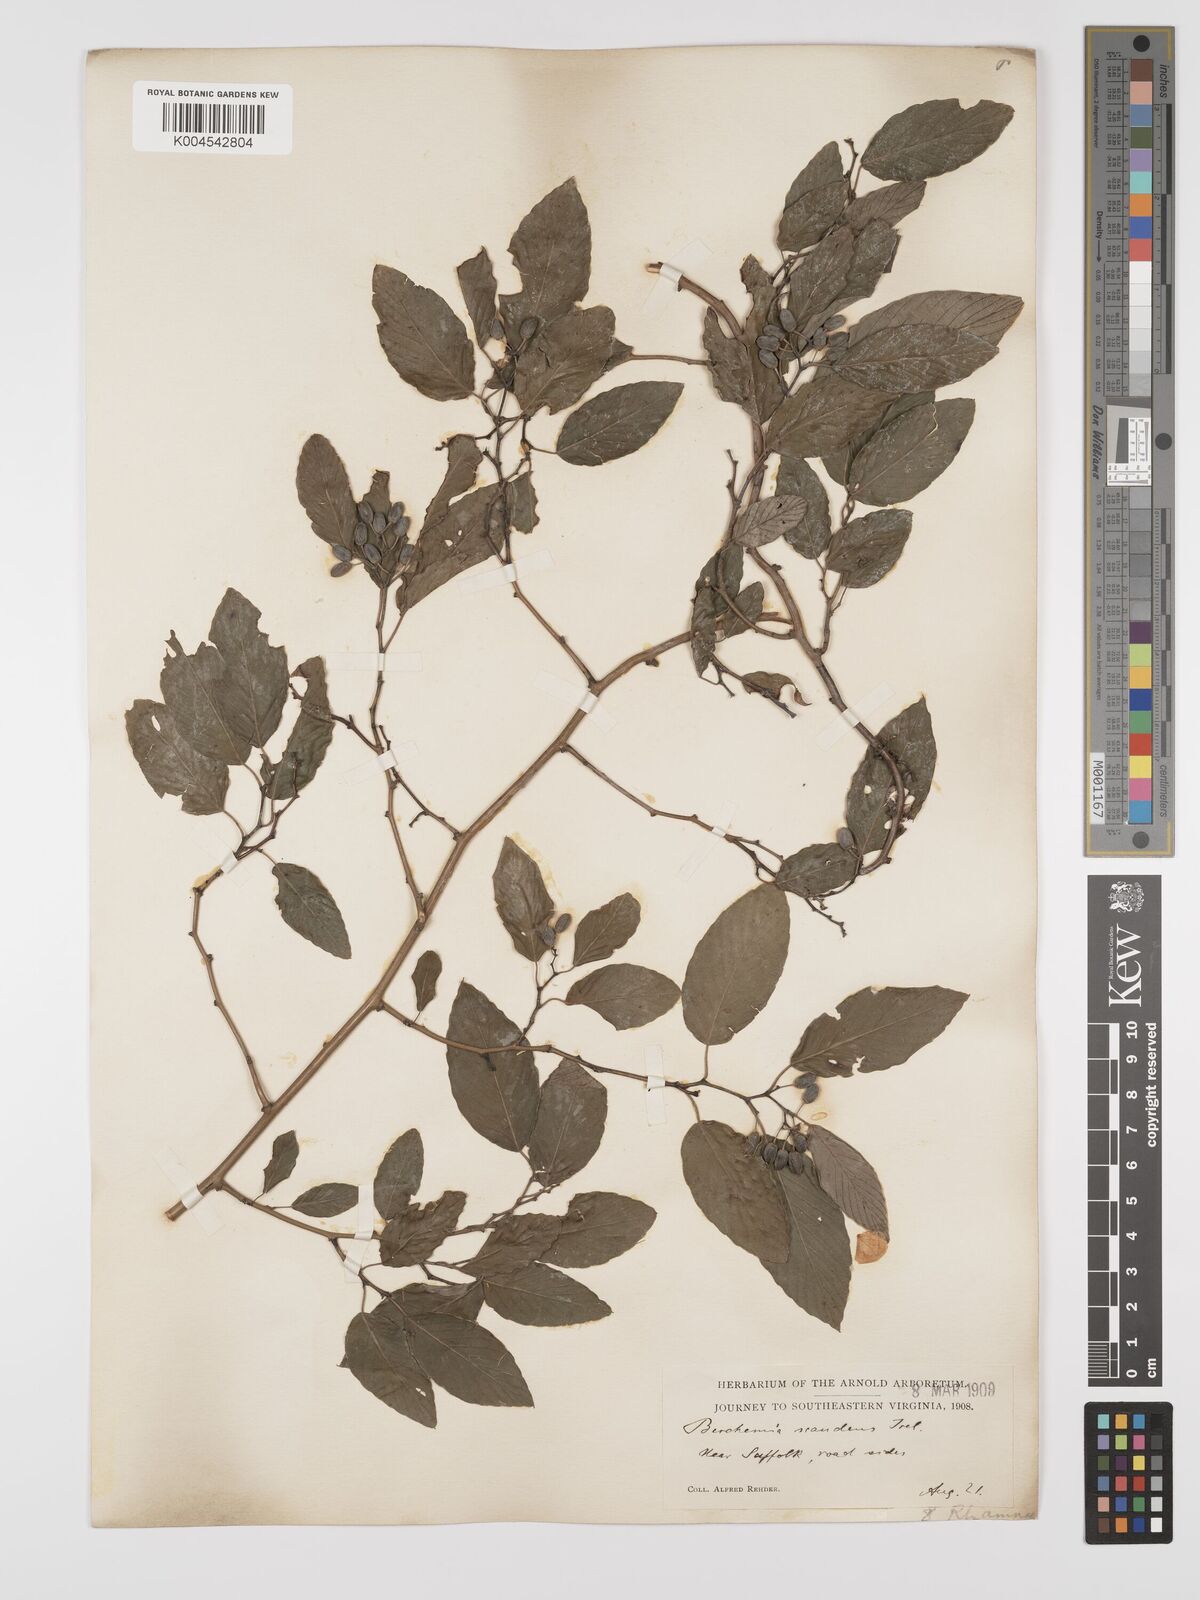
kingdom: Plantae
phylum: Tracheophyta
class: Magnoliopsida
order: Rosales
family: Rhamnaceae
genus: Berchemia
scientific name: Berchemia scandens
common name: Supplejack
